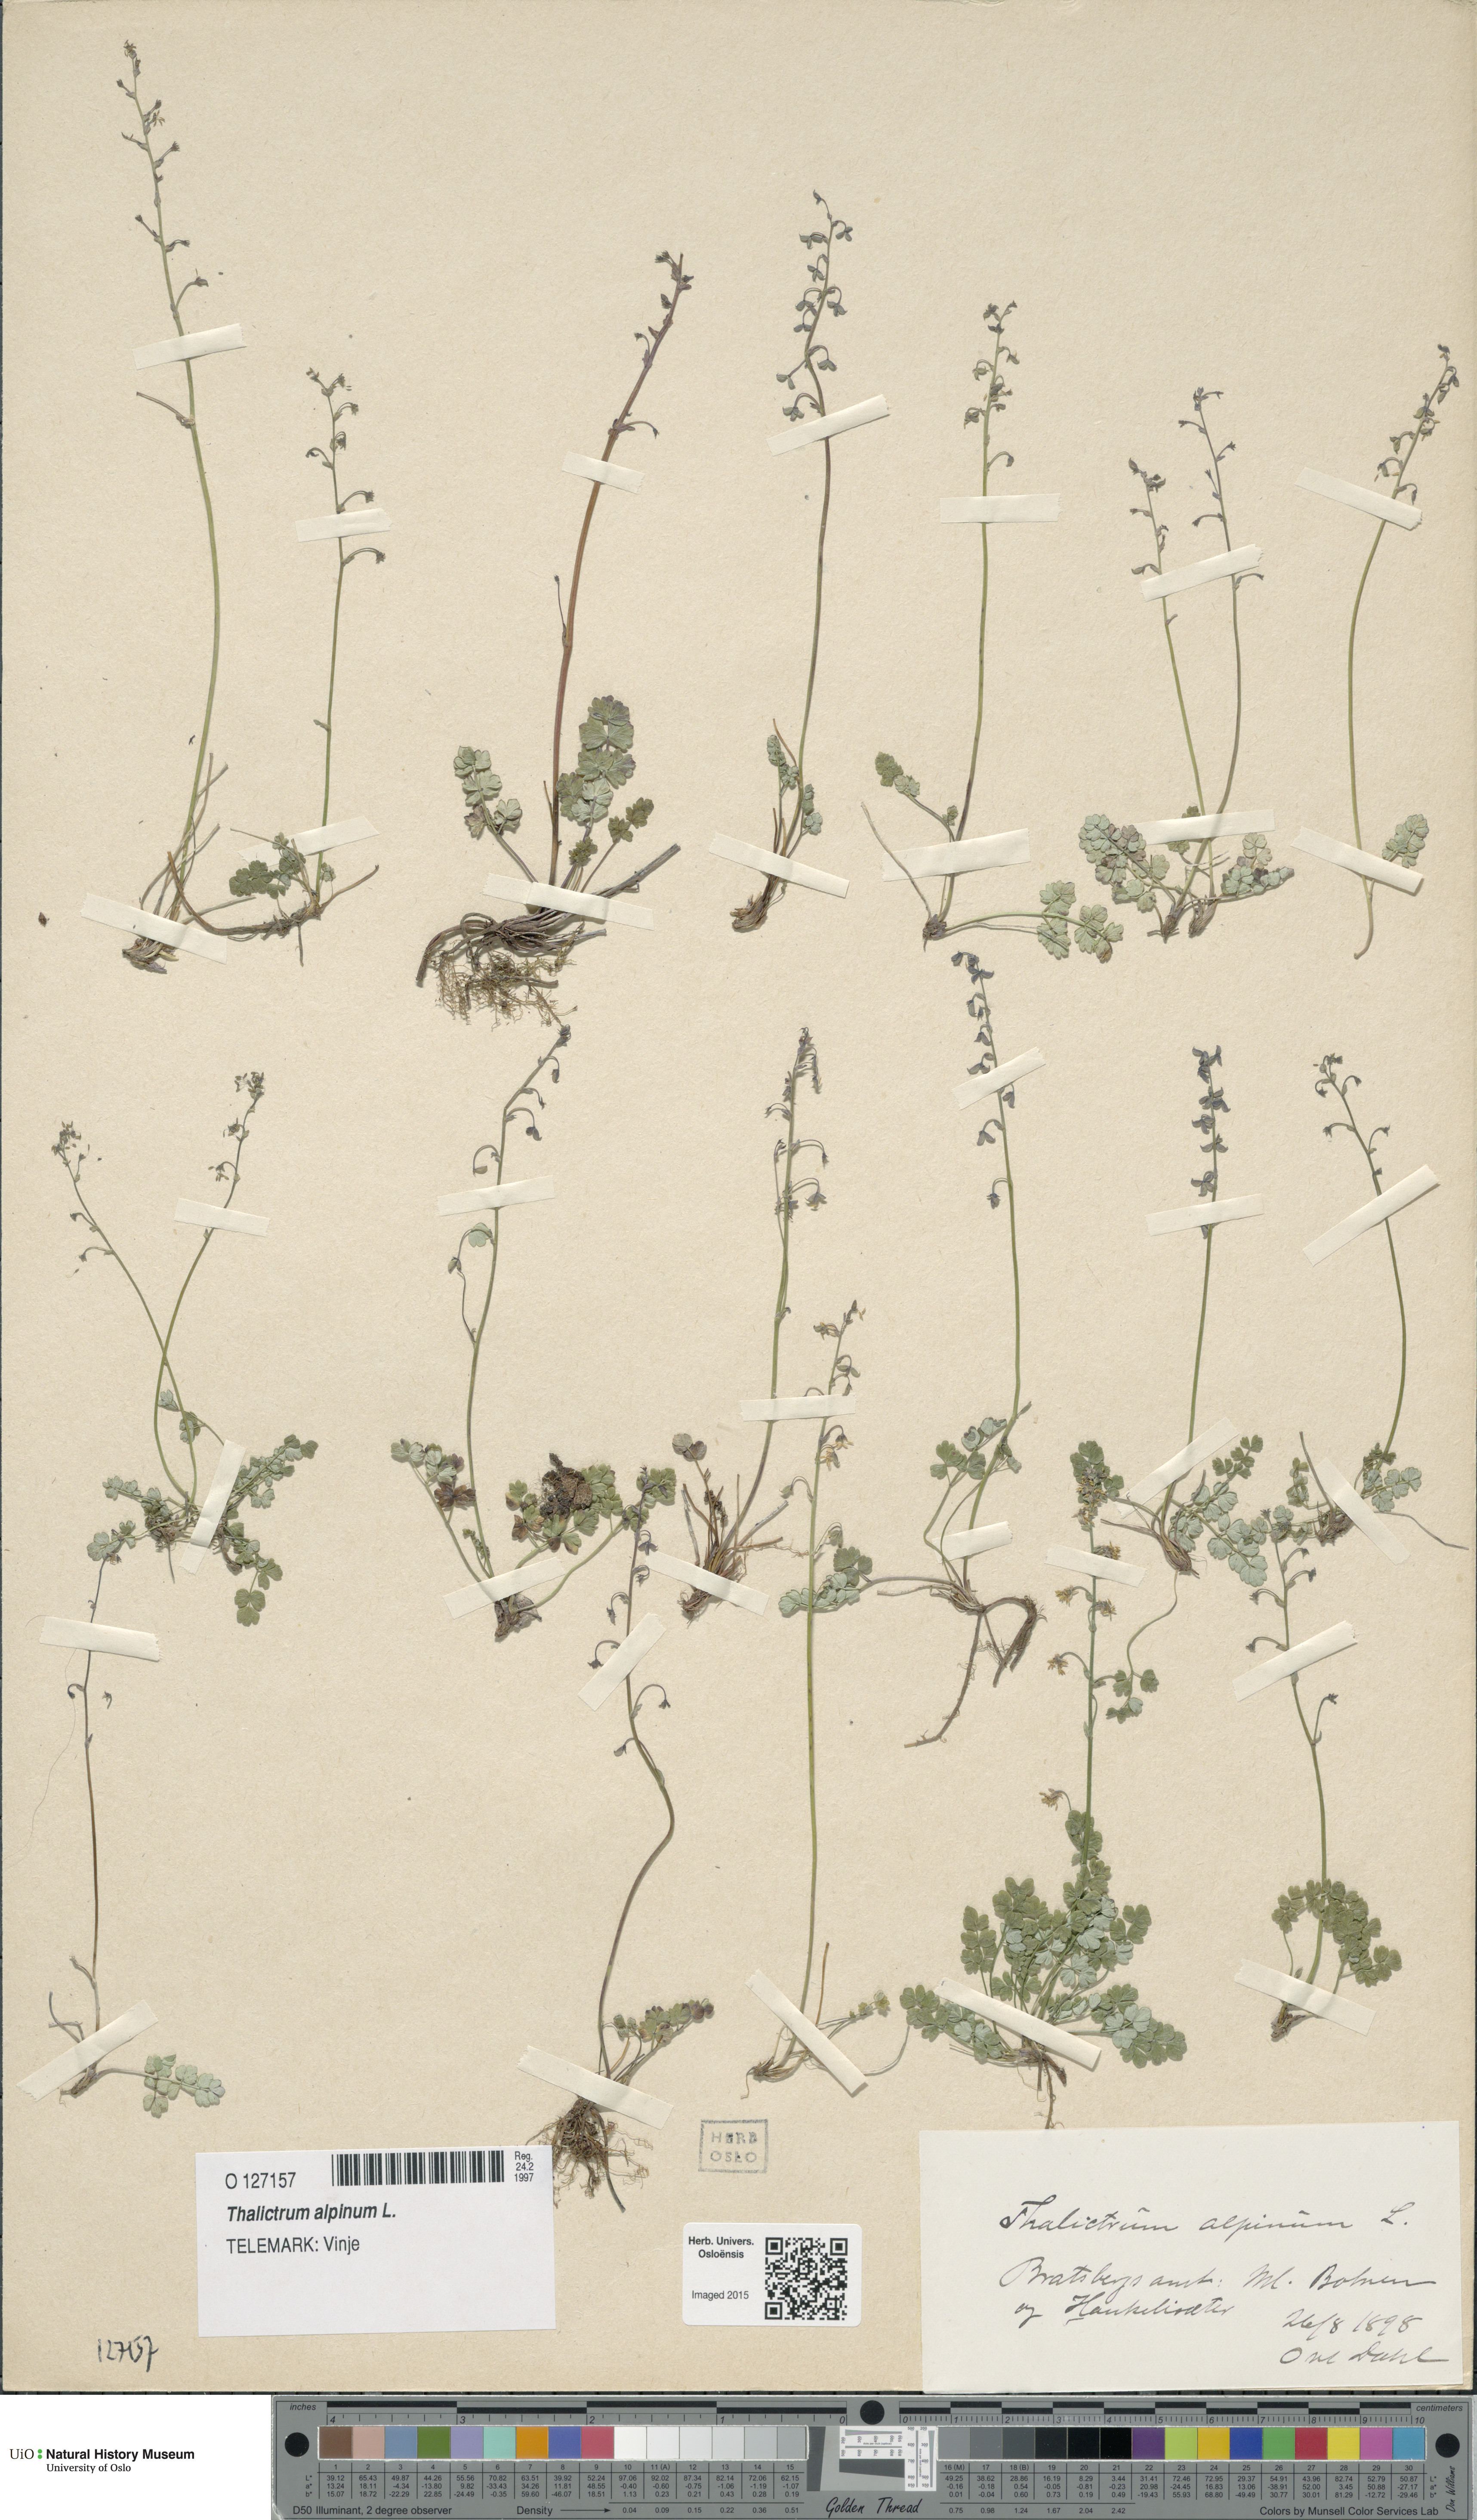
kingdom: Plantae
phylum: Tracheophyta
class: Magnoliopsida
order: Ranunculales
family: Ranunculaceae
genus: Thalictrum
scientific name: Thalictrum alpinum
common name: Alpine meadow-rue
